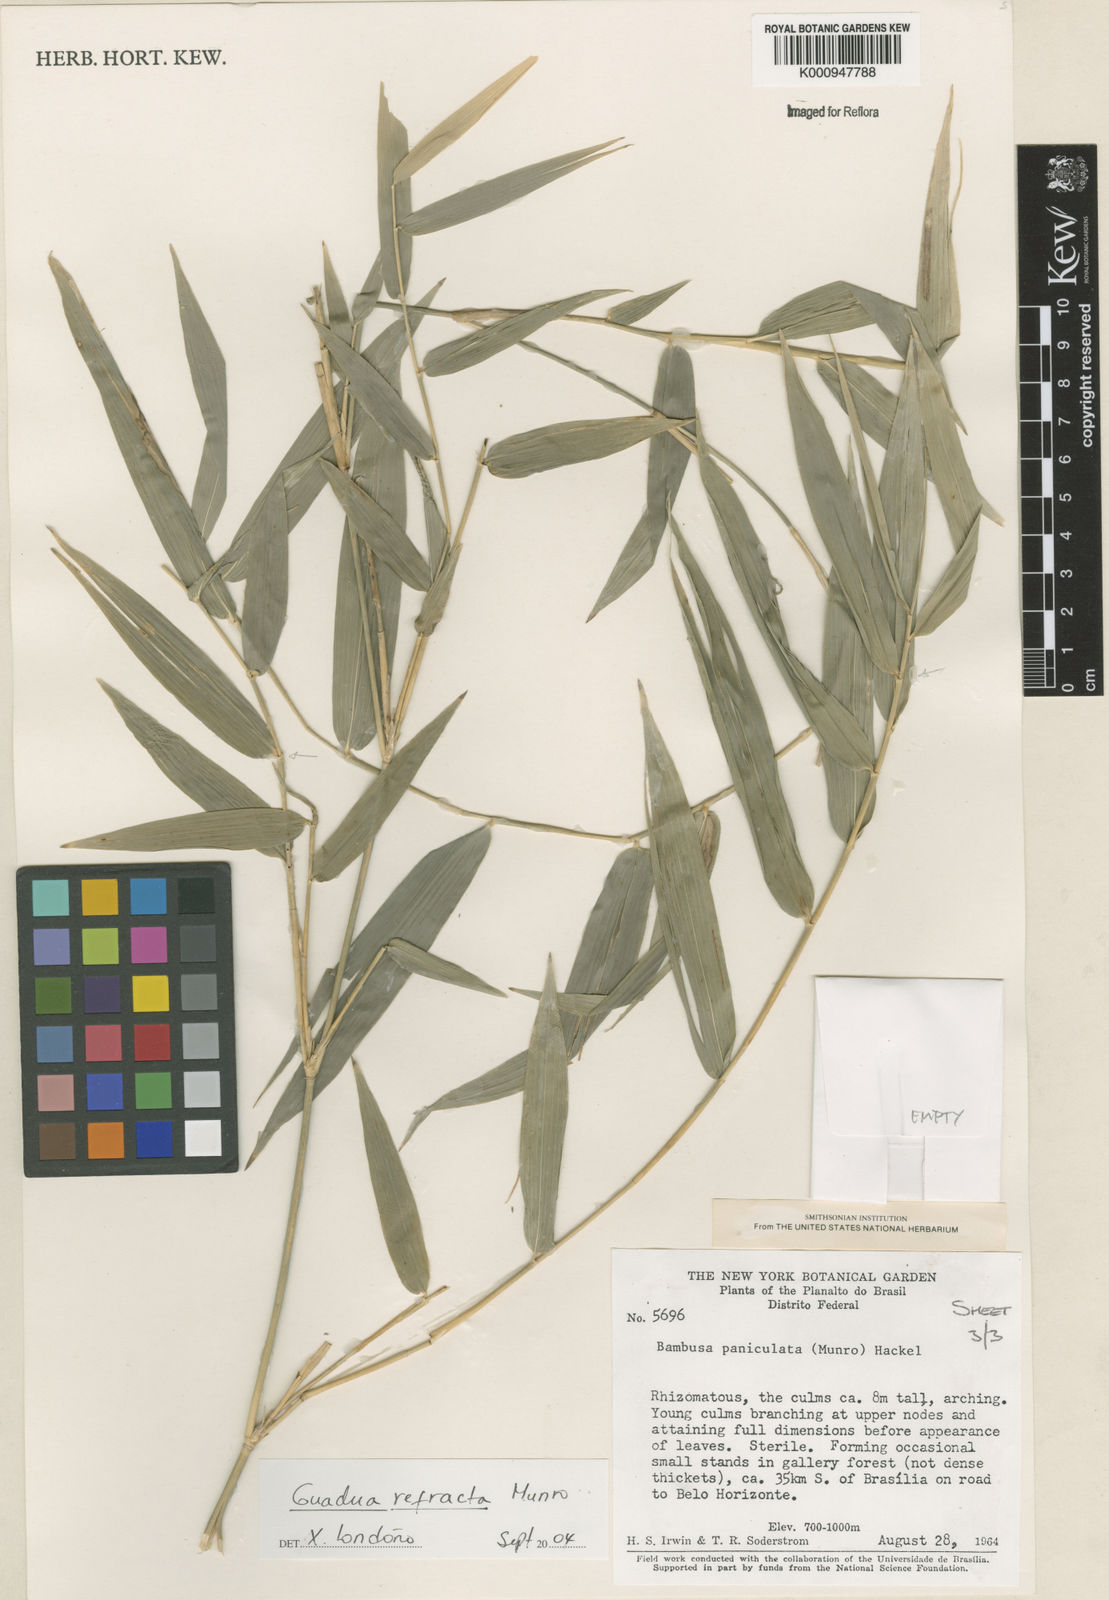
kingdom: Plantae
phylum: Tracheophyta
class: Liliopsida
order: Poales
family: Poaceae
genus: Guadua
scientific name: Guadua
